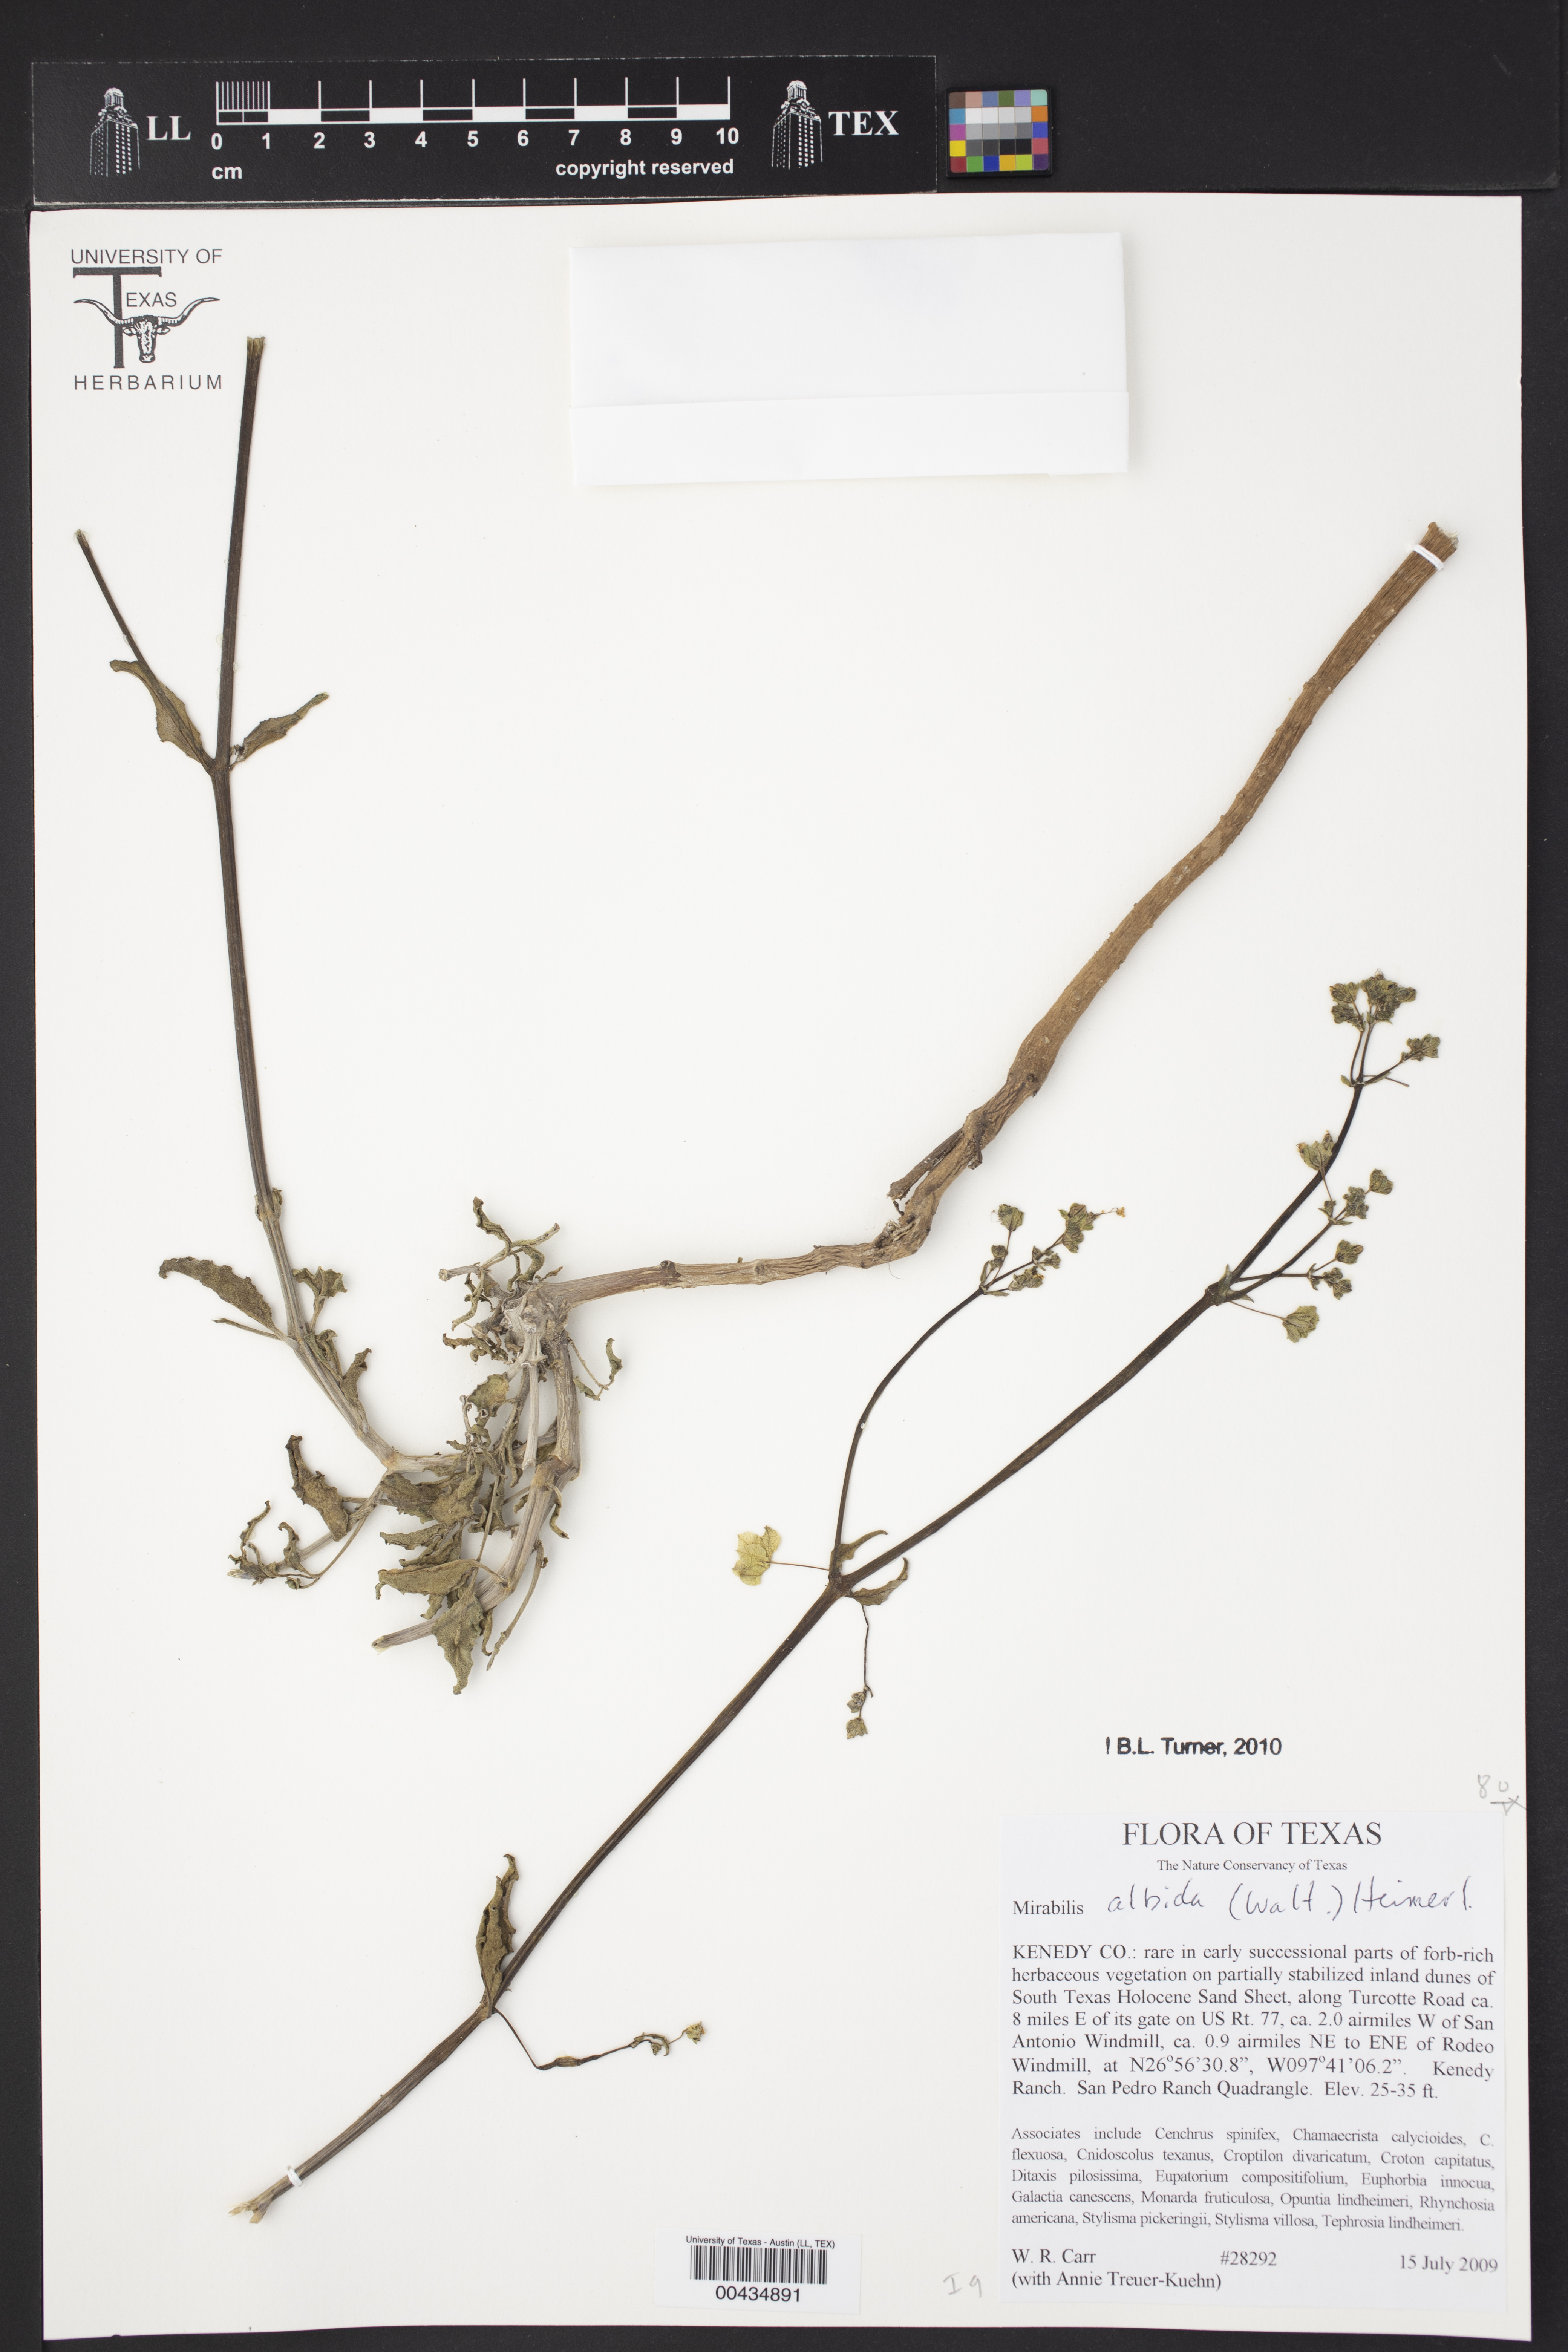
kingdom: Plantae
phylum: Tracheophyta
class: Magnoliopsida
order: Caryophyllales
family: Nyctaginaceae
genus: Mirabilis
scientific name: Mirabilis albida
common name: Hairy four-o'clock
